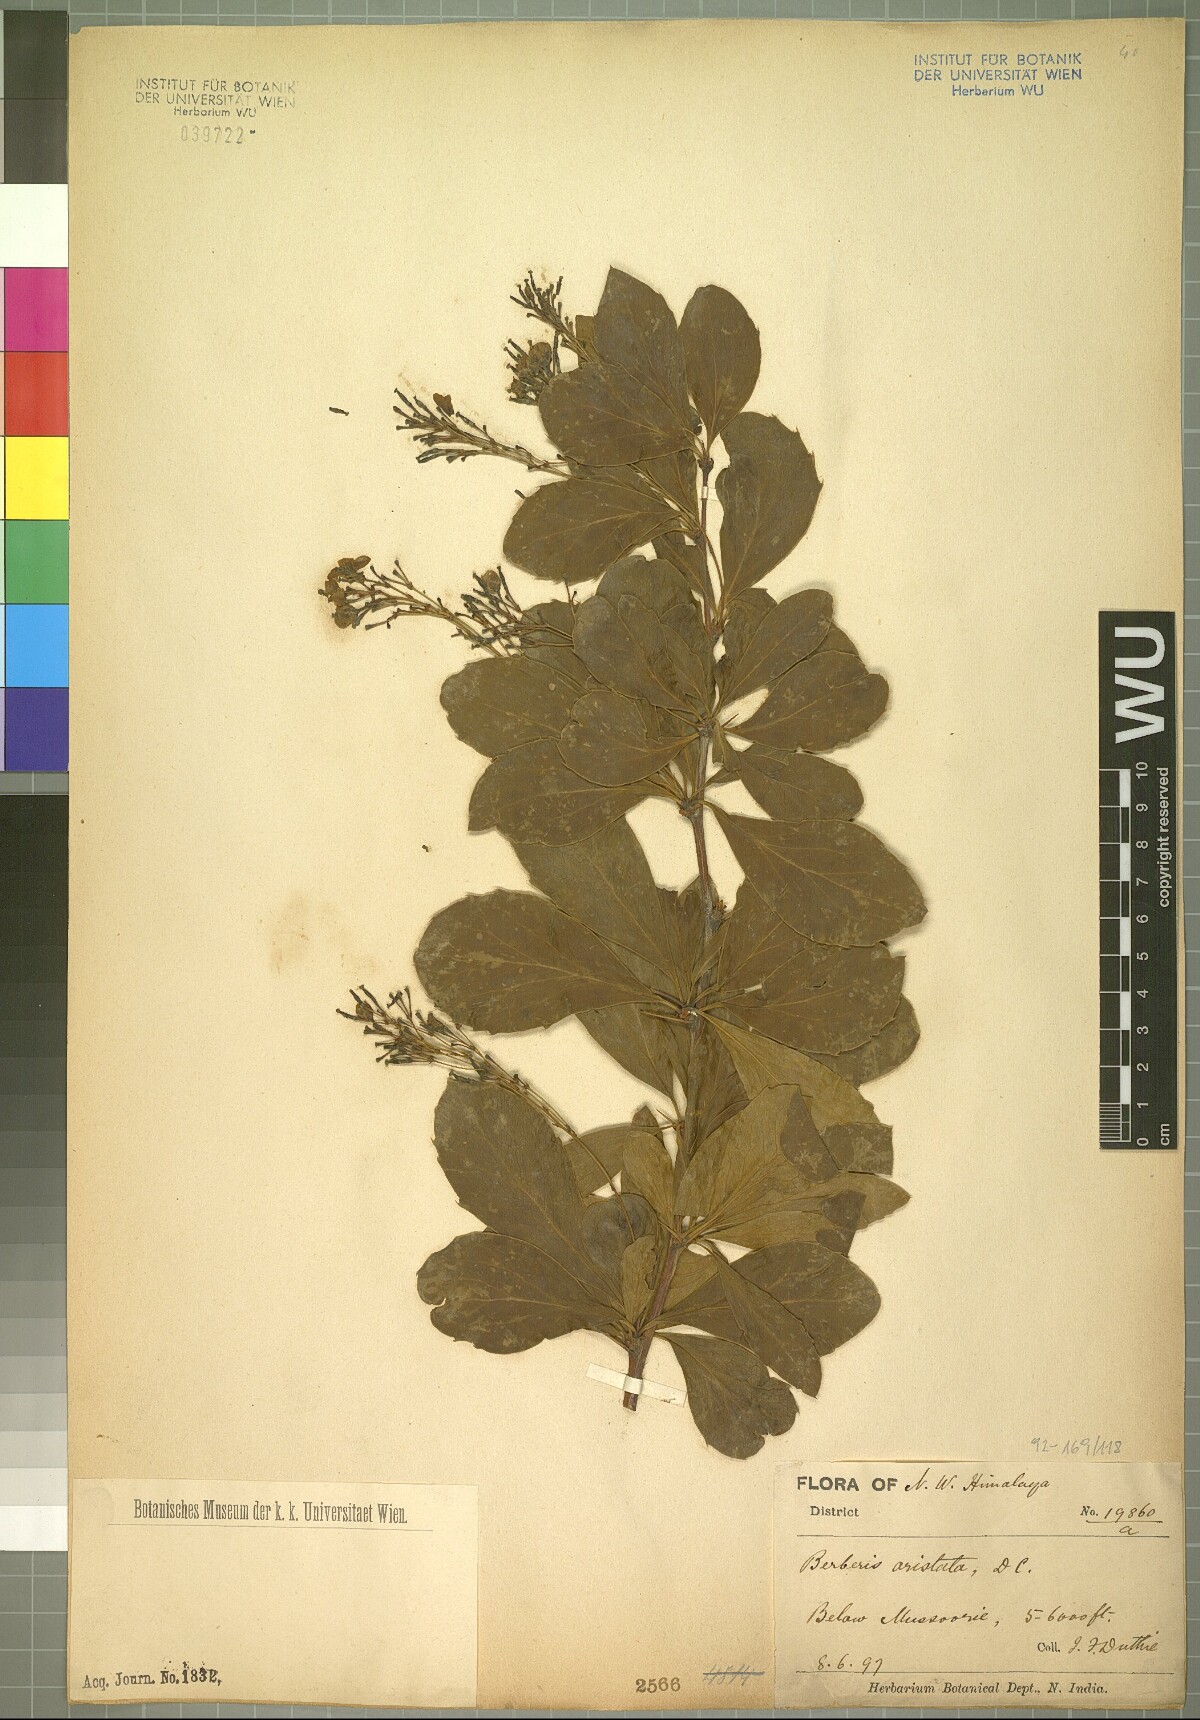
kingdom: Plantae
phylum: Tracheophyta
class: Magnoliopsida
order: Ranunculales
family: Berberidaceae
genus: Berberis
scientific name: Berberis aristata
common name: Indian barberry
